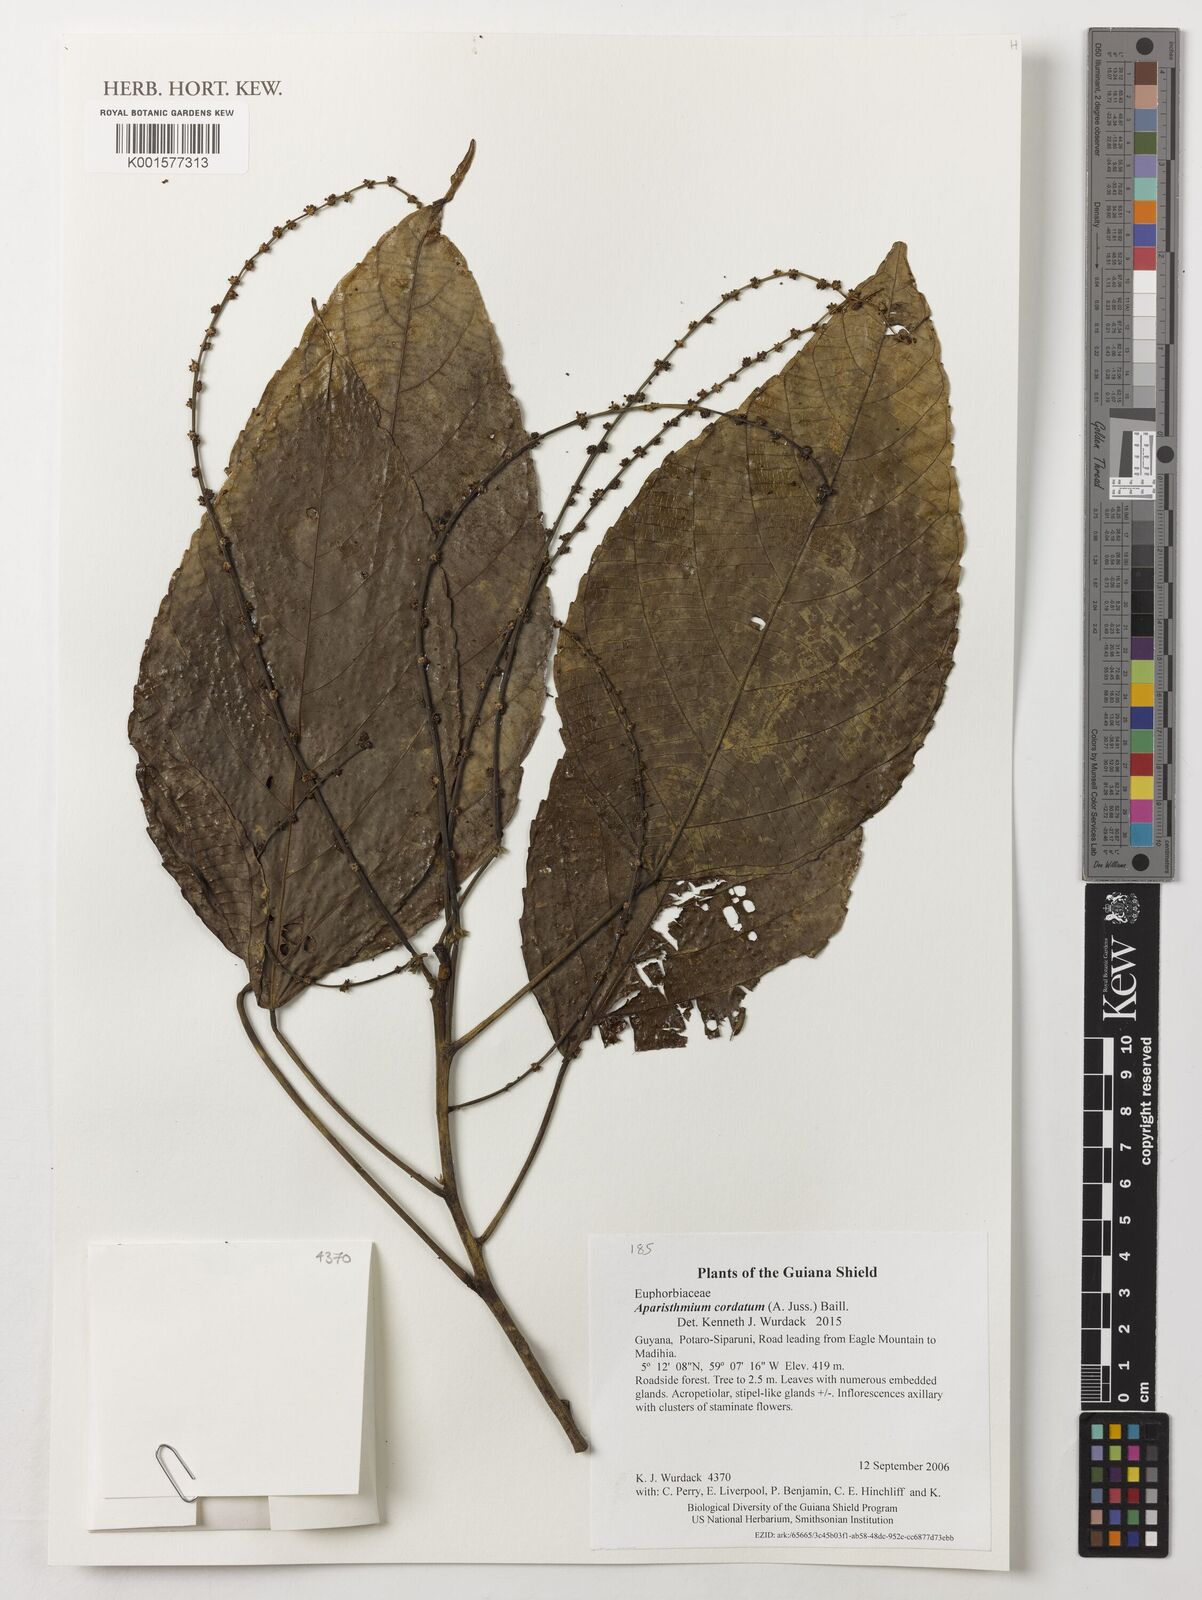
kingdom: Plantae
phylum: Tracheophyta
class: Magnoliopsida
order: Malpighiales
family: Euphorbiaceae
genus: Aparisthmium
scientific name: Aparisthmium cordatum
